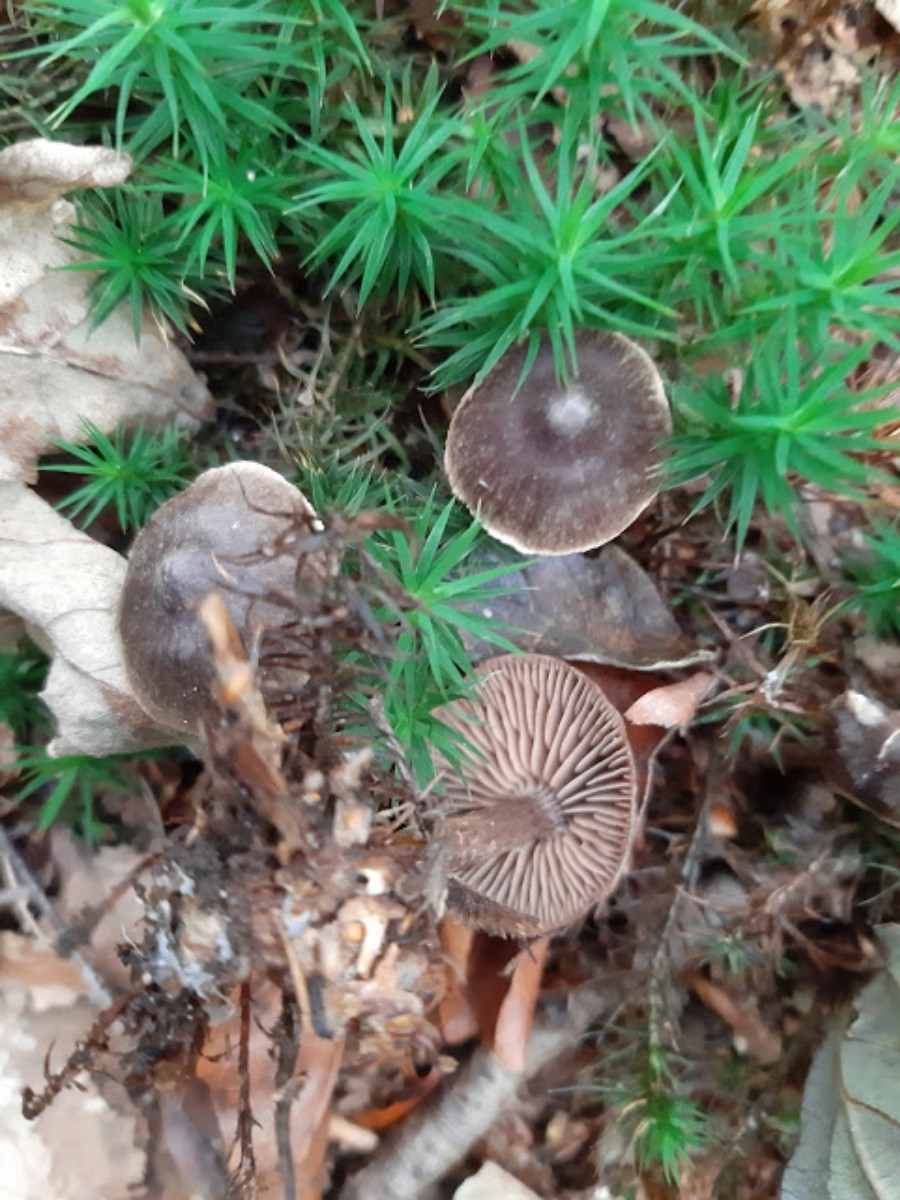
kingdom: Fungi
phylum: Basidiomycota
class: Agaricomycetes
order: Agaricales
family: Cortinariaceae
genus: Cortinarius
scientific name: Cortinarius umbrinolens
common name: mørk slørhat
